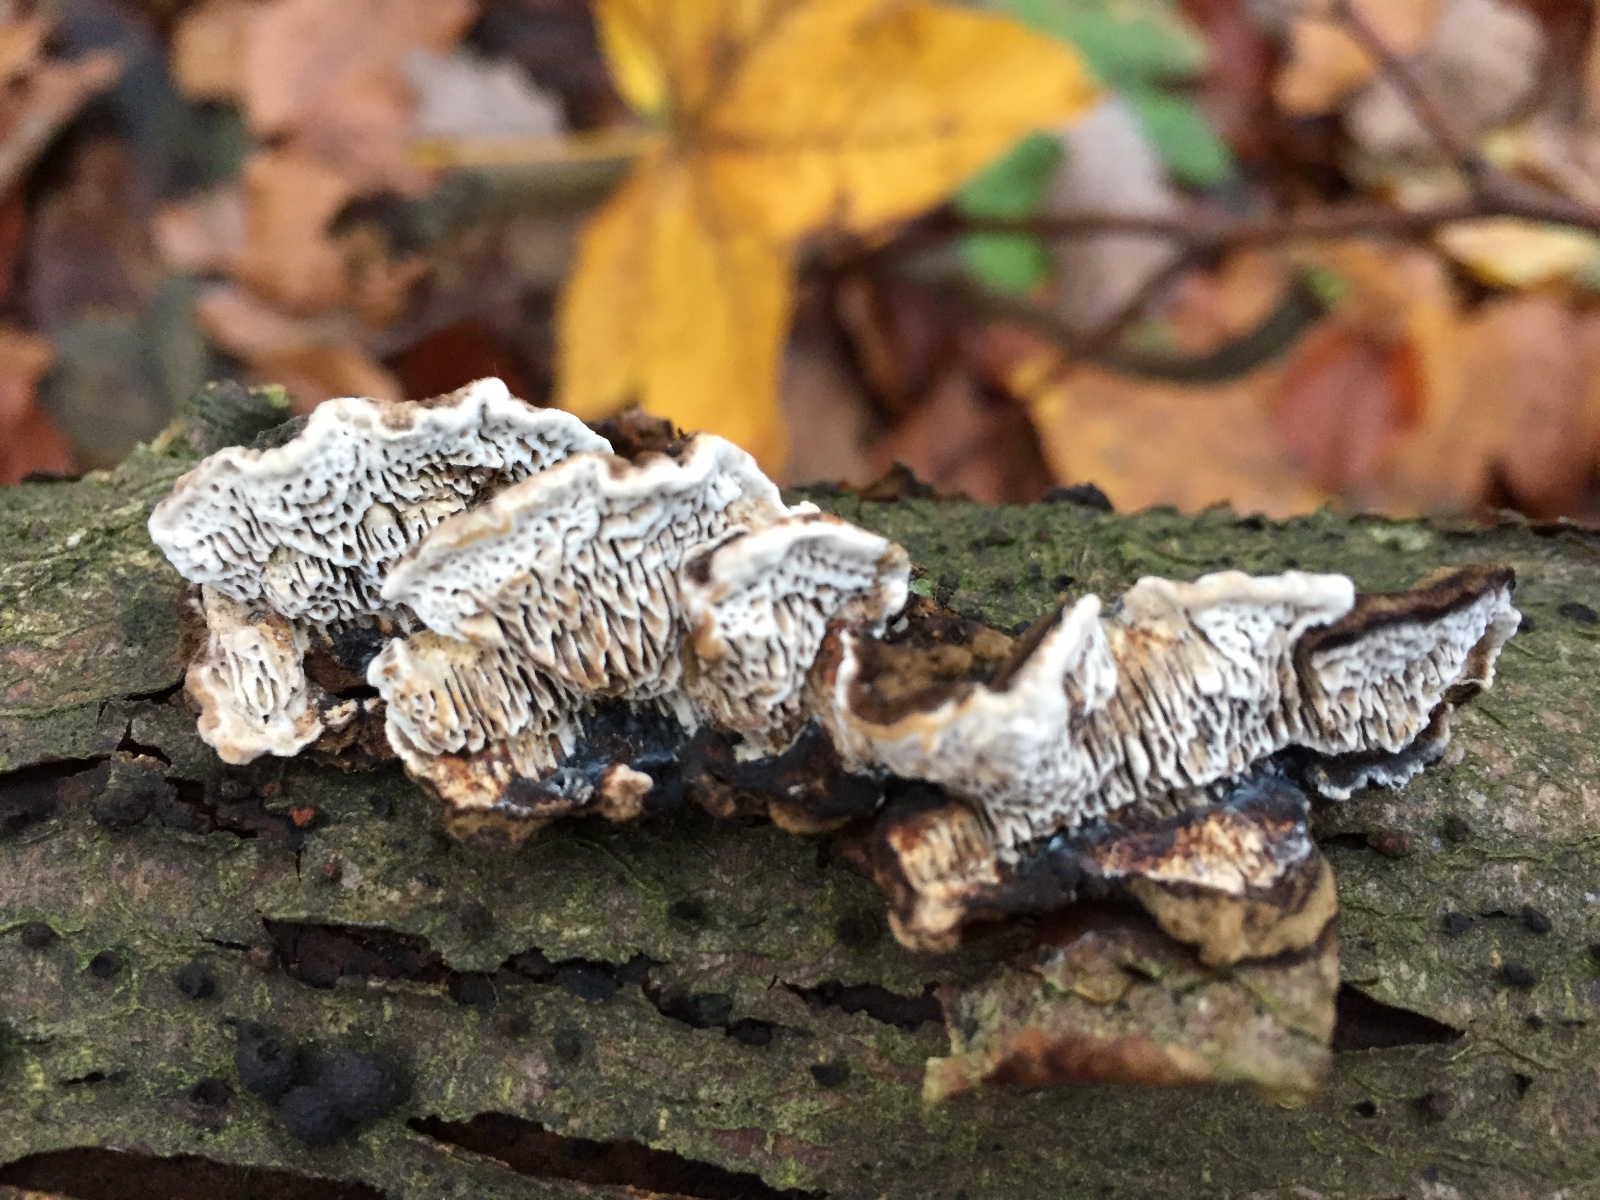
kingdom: Fungi
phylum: Basidiomycota
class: Agaricomycetes
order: Polyporales
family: Polyporaceae
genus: Podofomes
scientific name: Podofomes mollis
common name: blød begporesvamp
